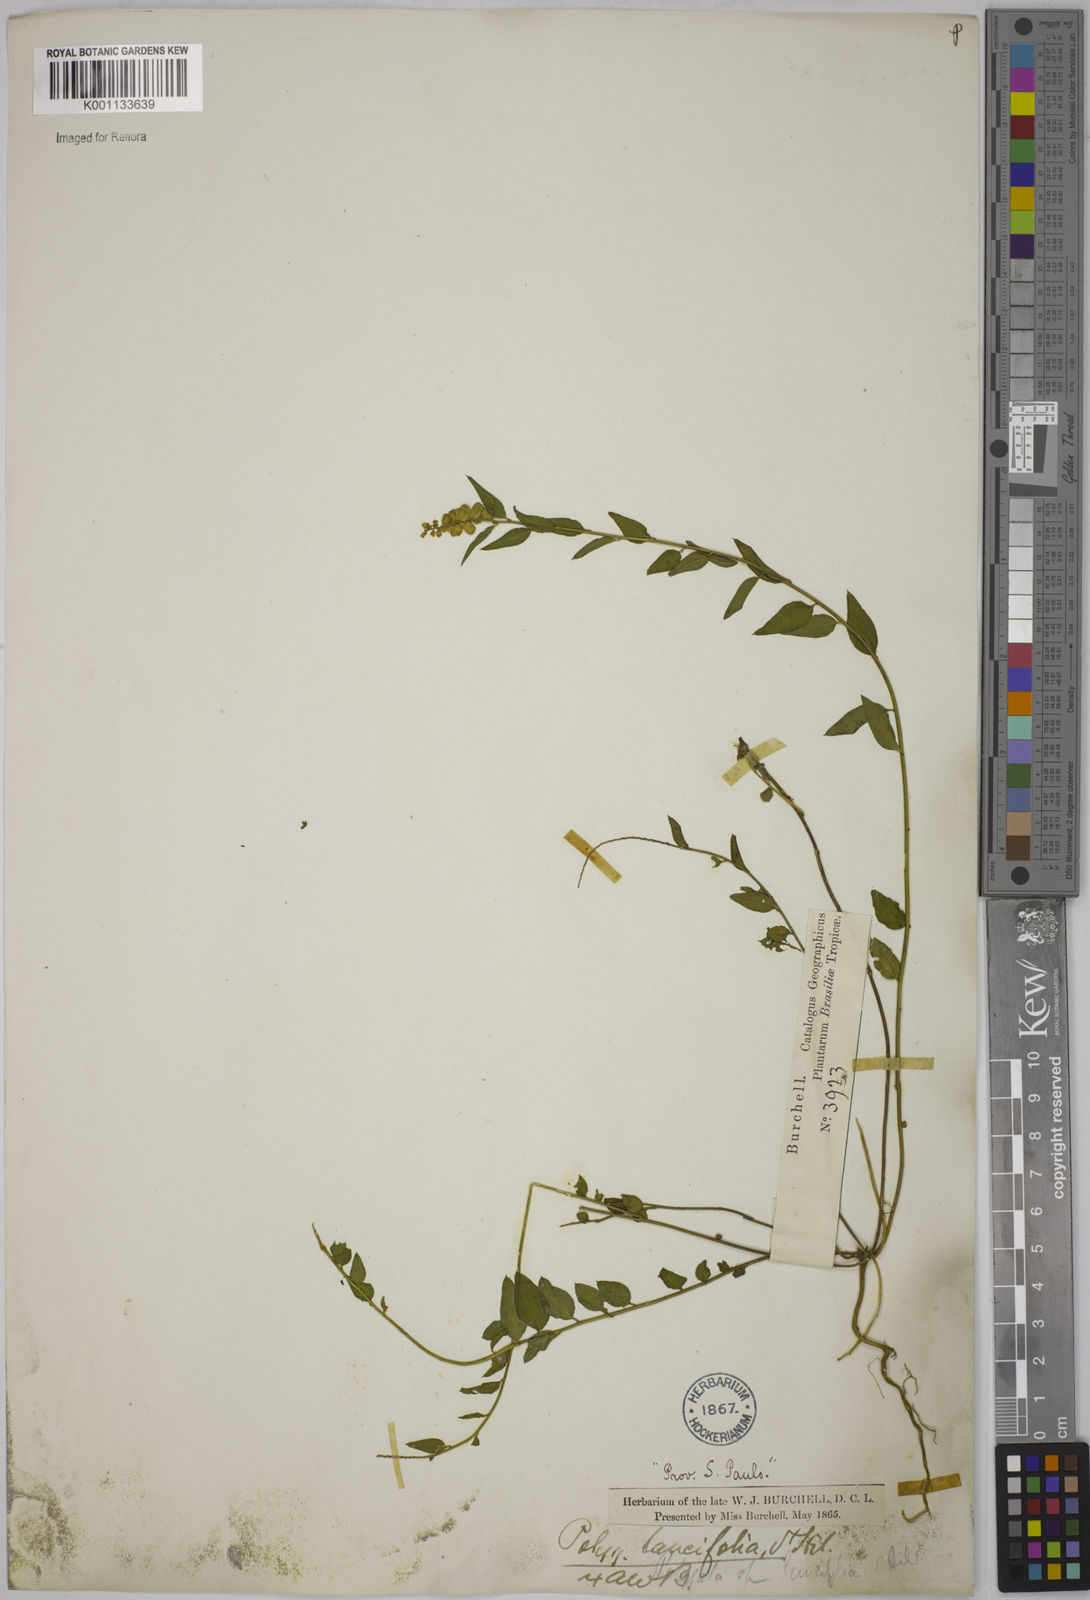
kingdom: Plantae
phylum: Tracheophyta
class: Magnoliopsida
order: Fabales
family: Polygalaceae
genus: Polygala
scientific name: Polygala lancifolia
